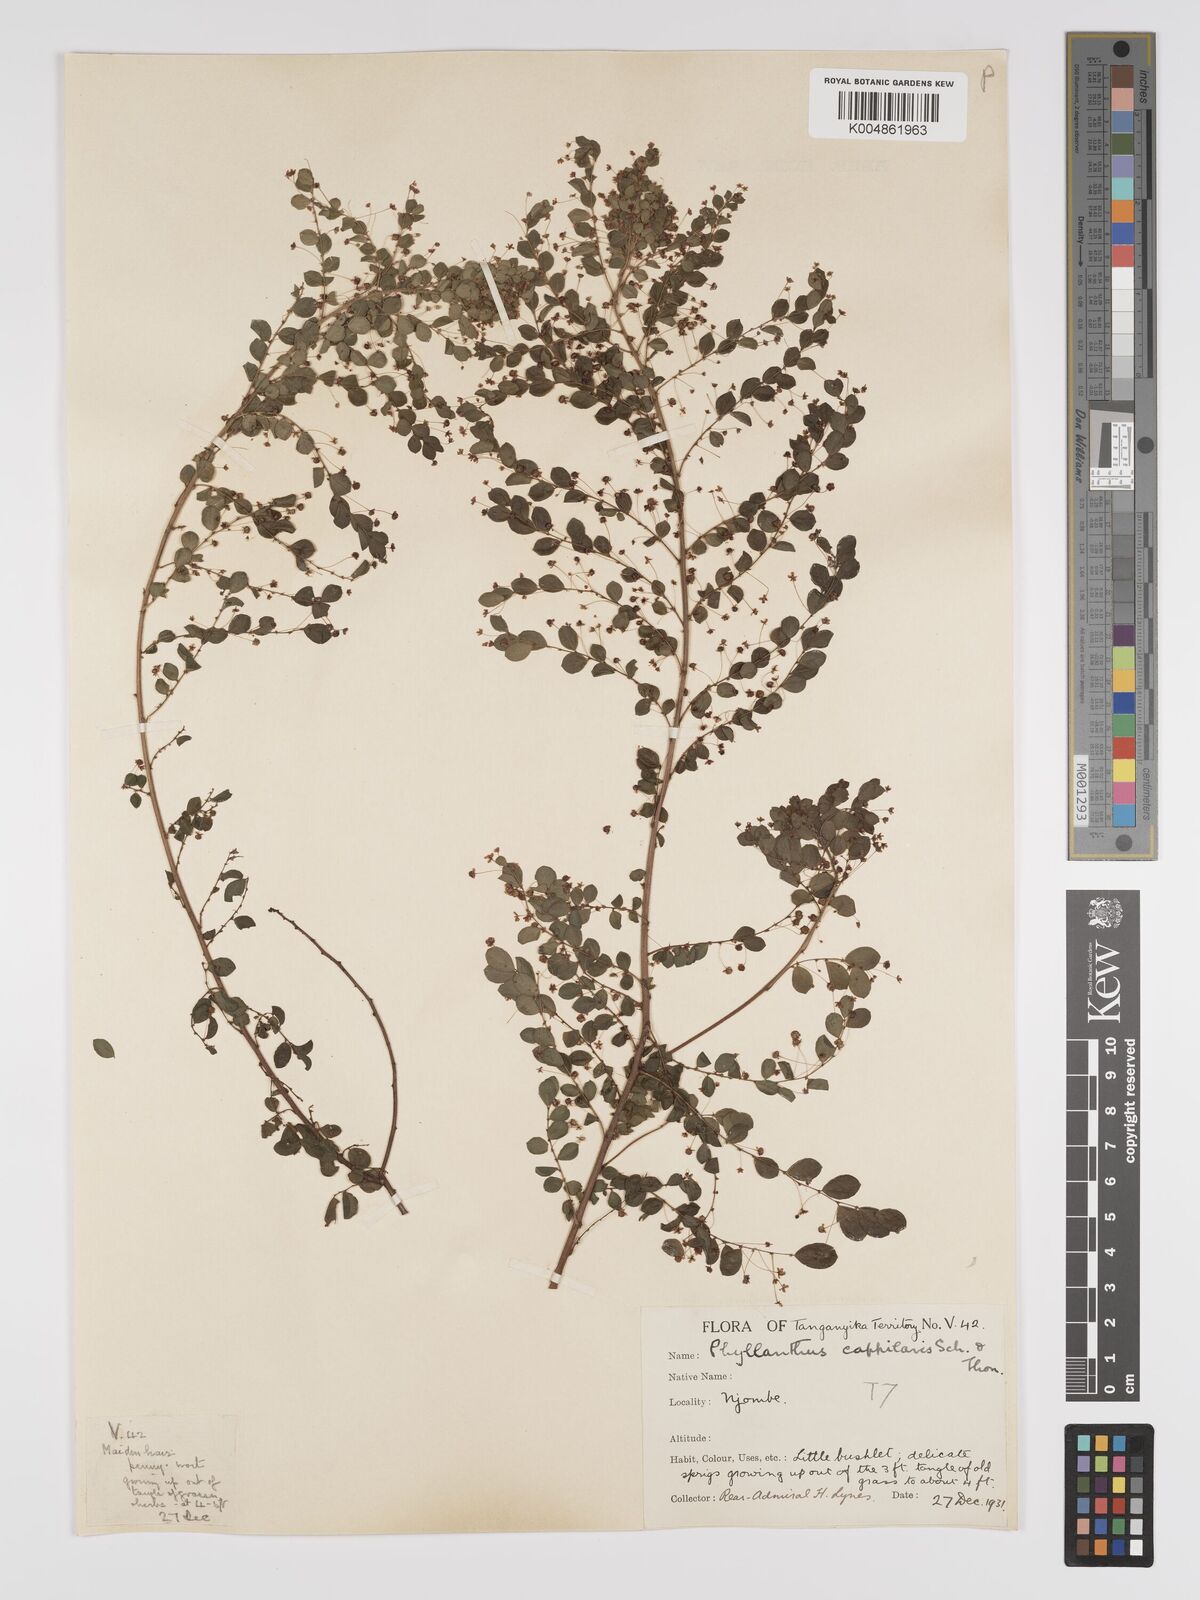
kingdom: Plantae
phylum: Tracheophyta
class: Magnoliopsida
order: Malpighiales
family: Phyllanthaceae
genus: Phyllanthus
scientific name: Phyllanthus nummulariifolius
